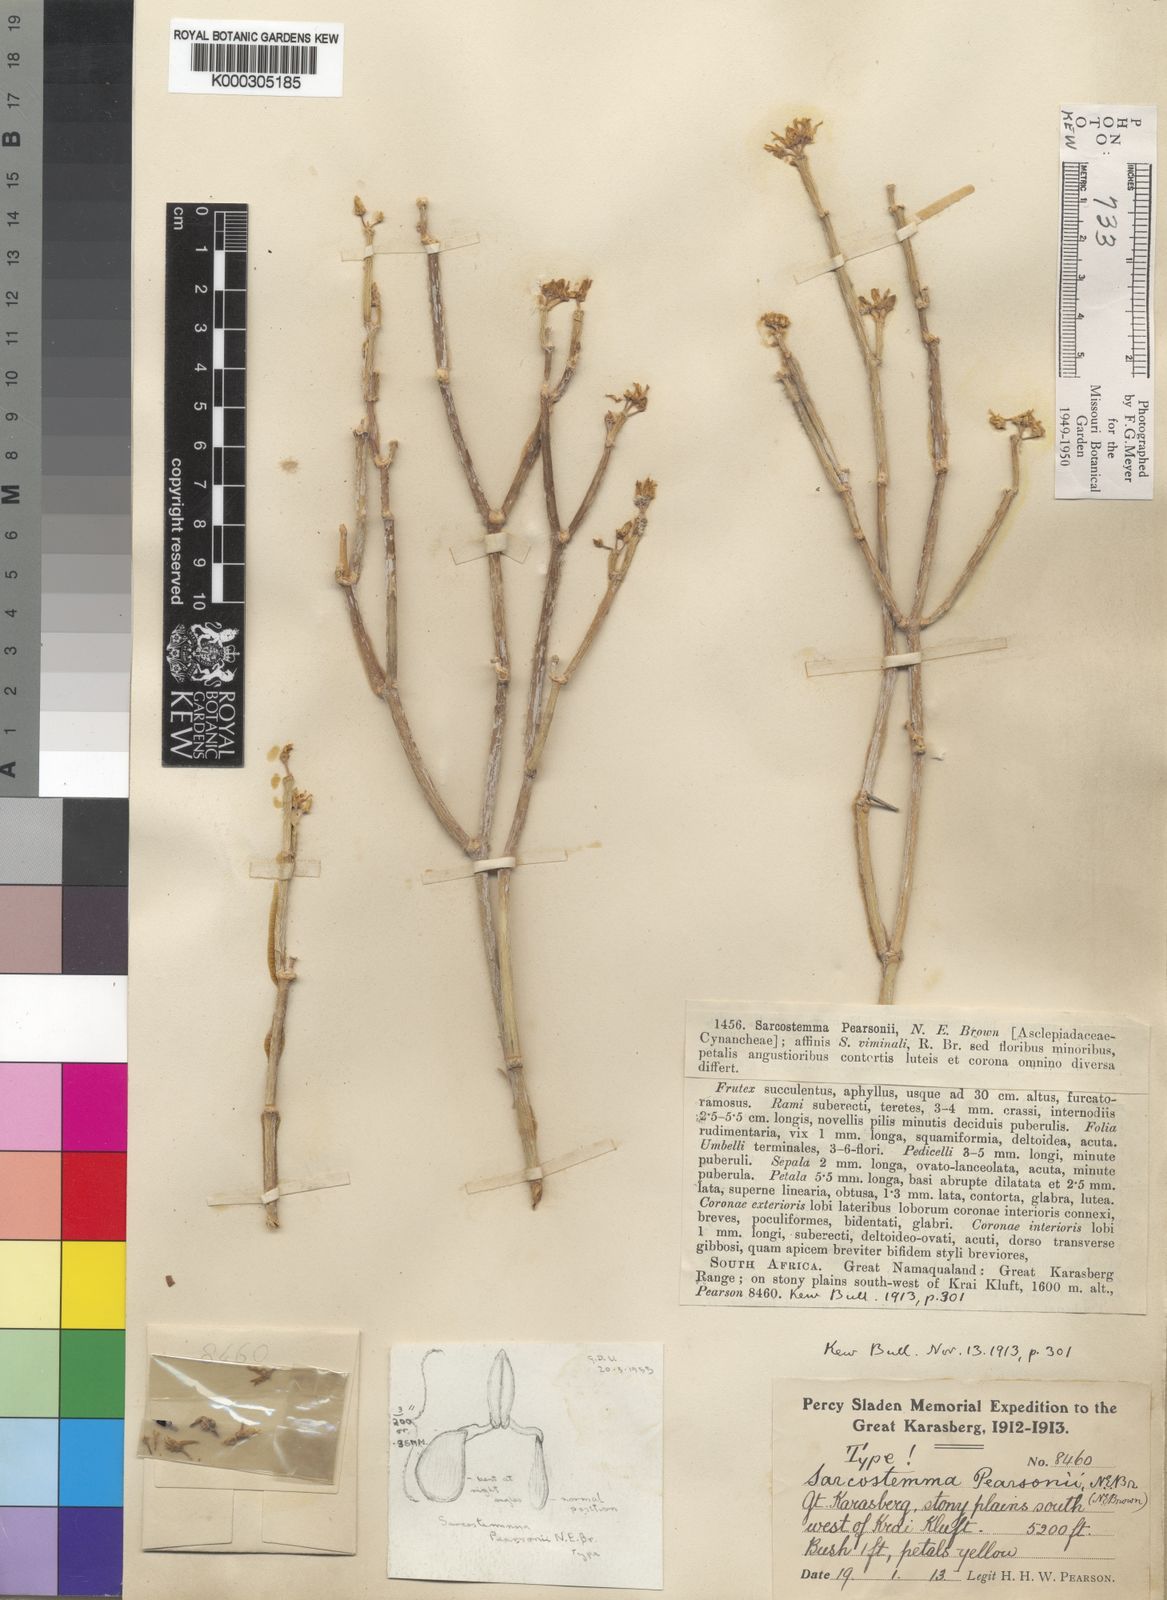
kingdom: Plantae
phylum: Tracheophyta
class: Magnoliopsida
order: Gentianales
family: Apocynaceae
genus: Cynanchum
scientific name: Cynanchum pearsonianum
